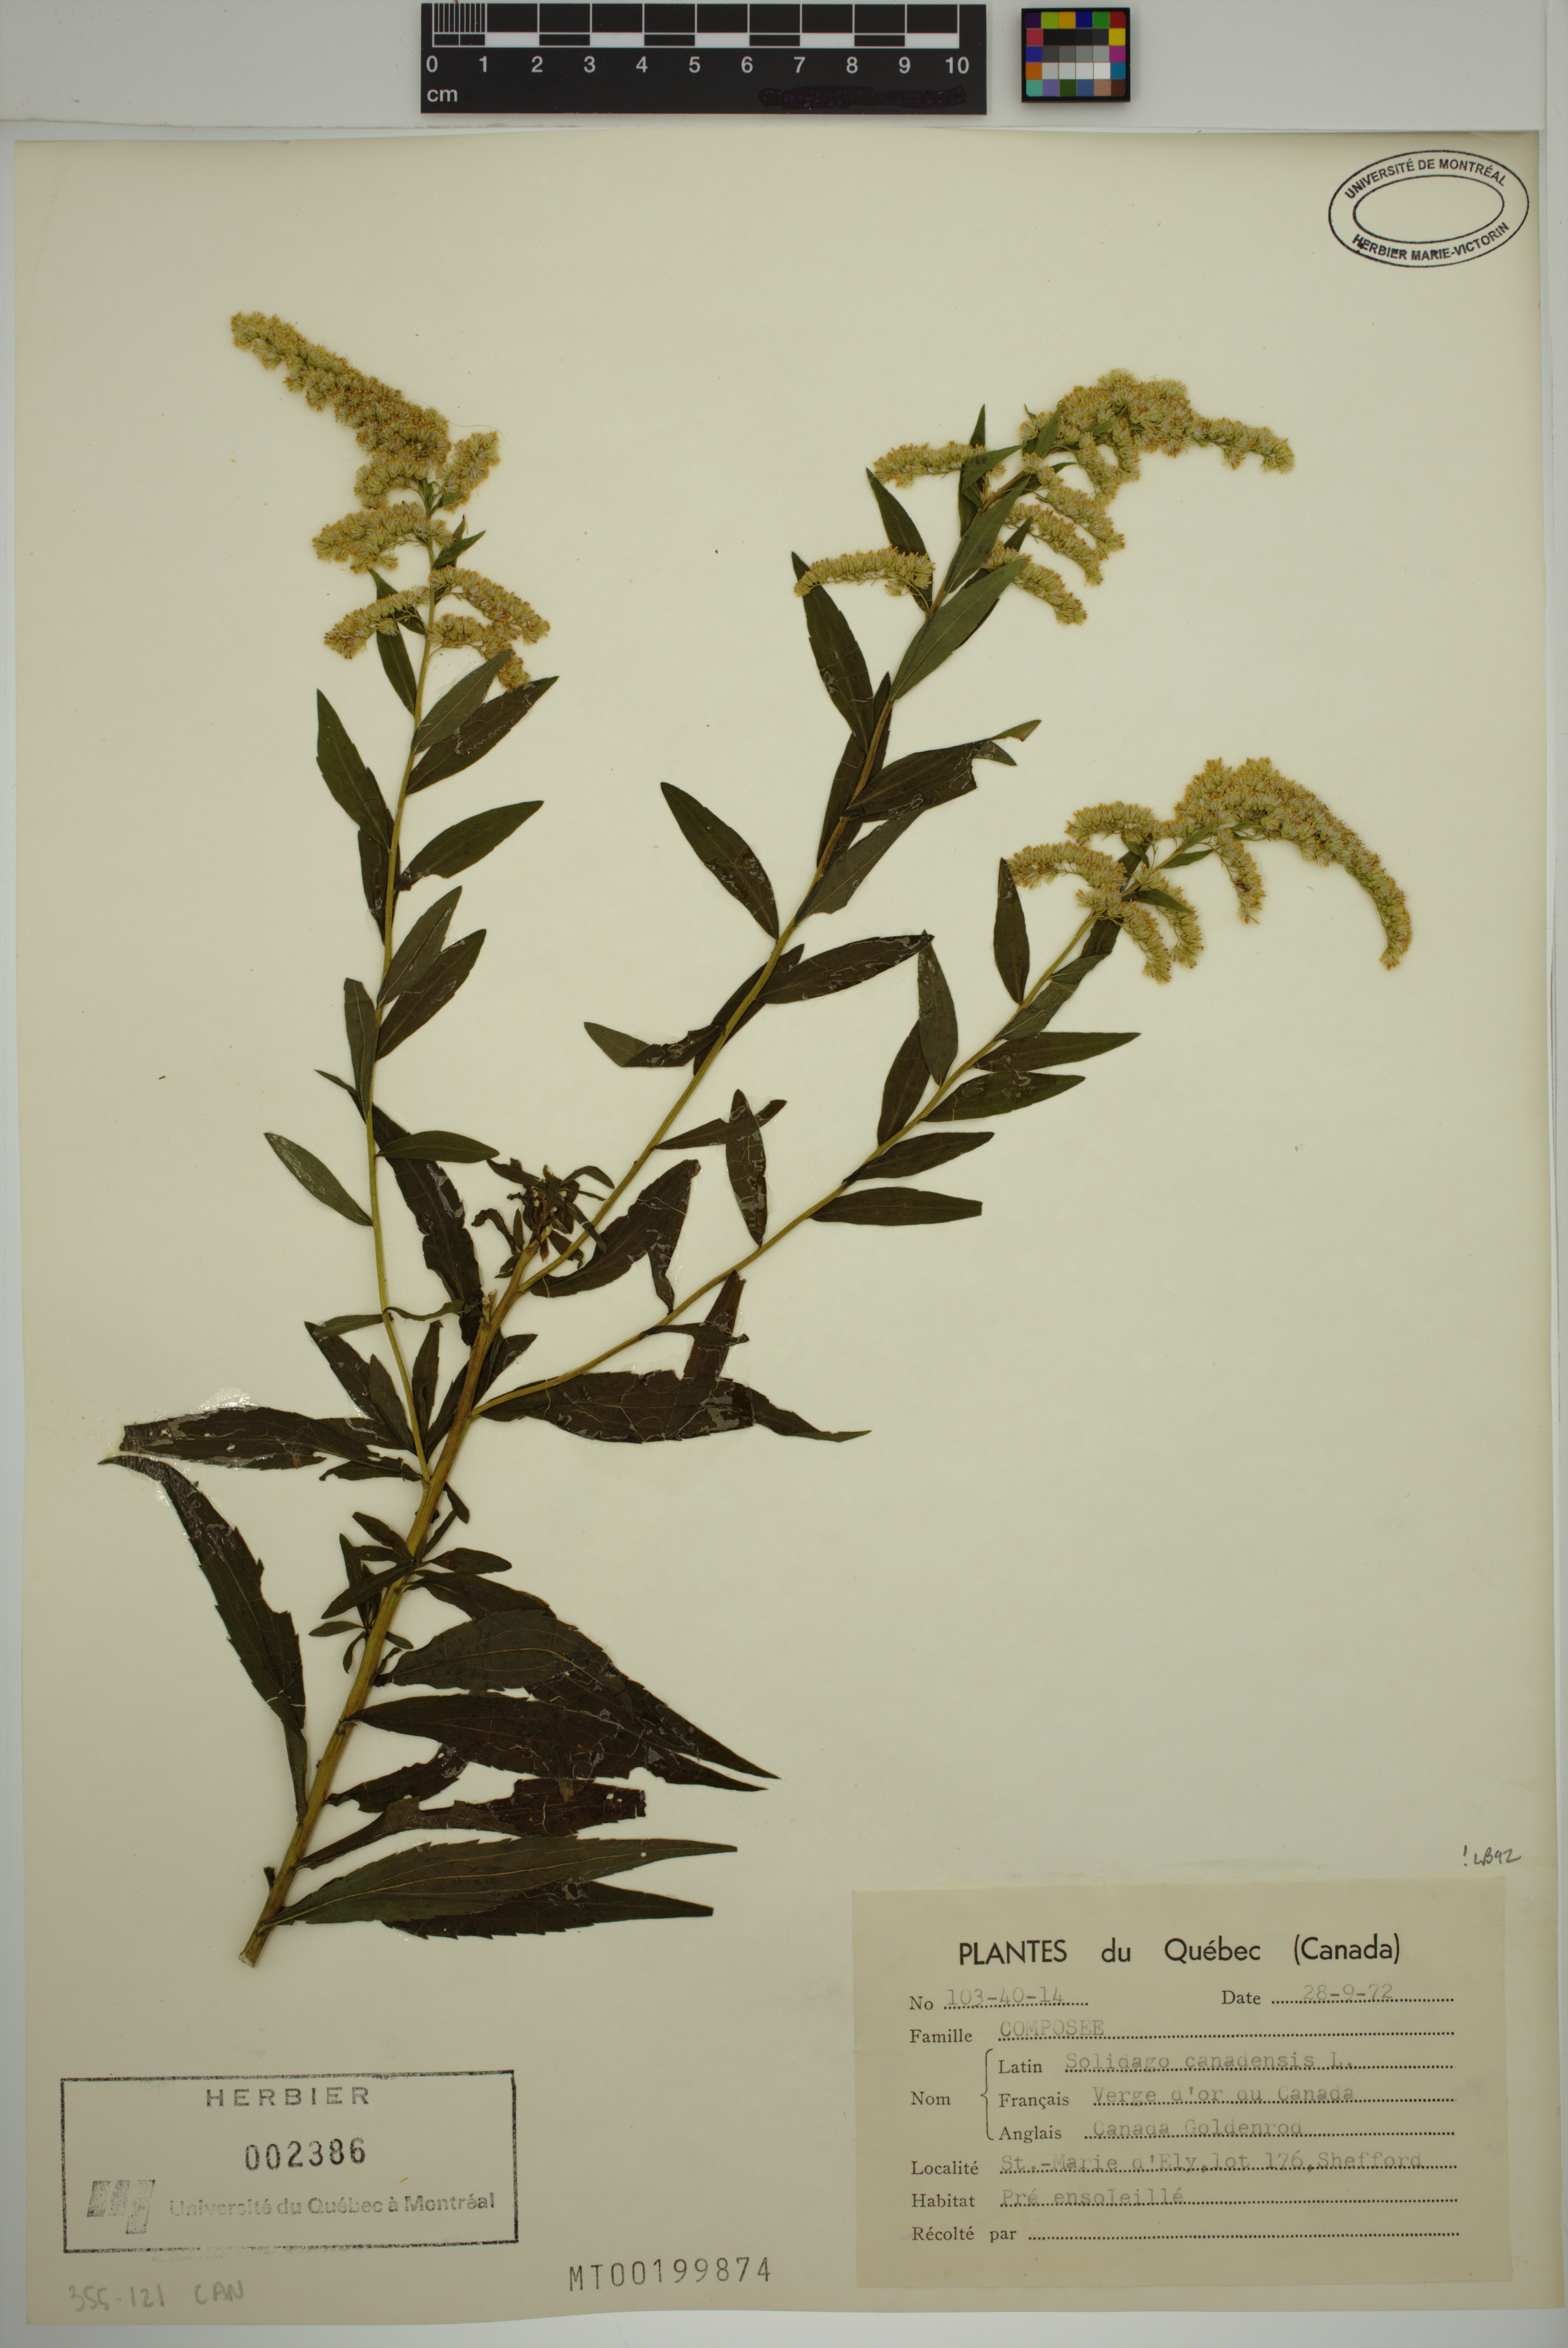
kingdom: Plantae
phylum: Tracheophyta
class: Magnoliopsida
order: Asterales
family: Asteraceae
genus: Solidago
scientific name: Solidago canadensis
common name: Canada goldenrod
